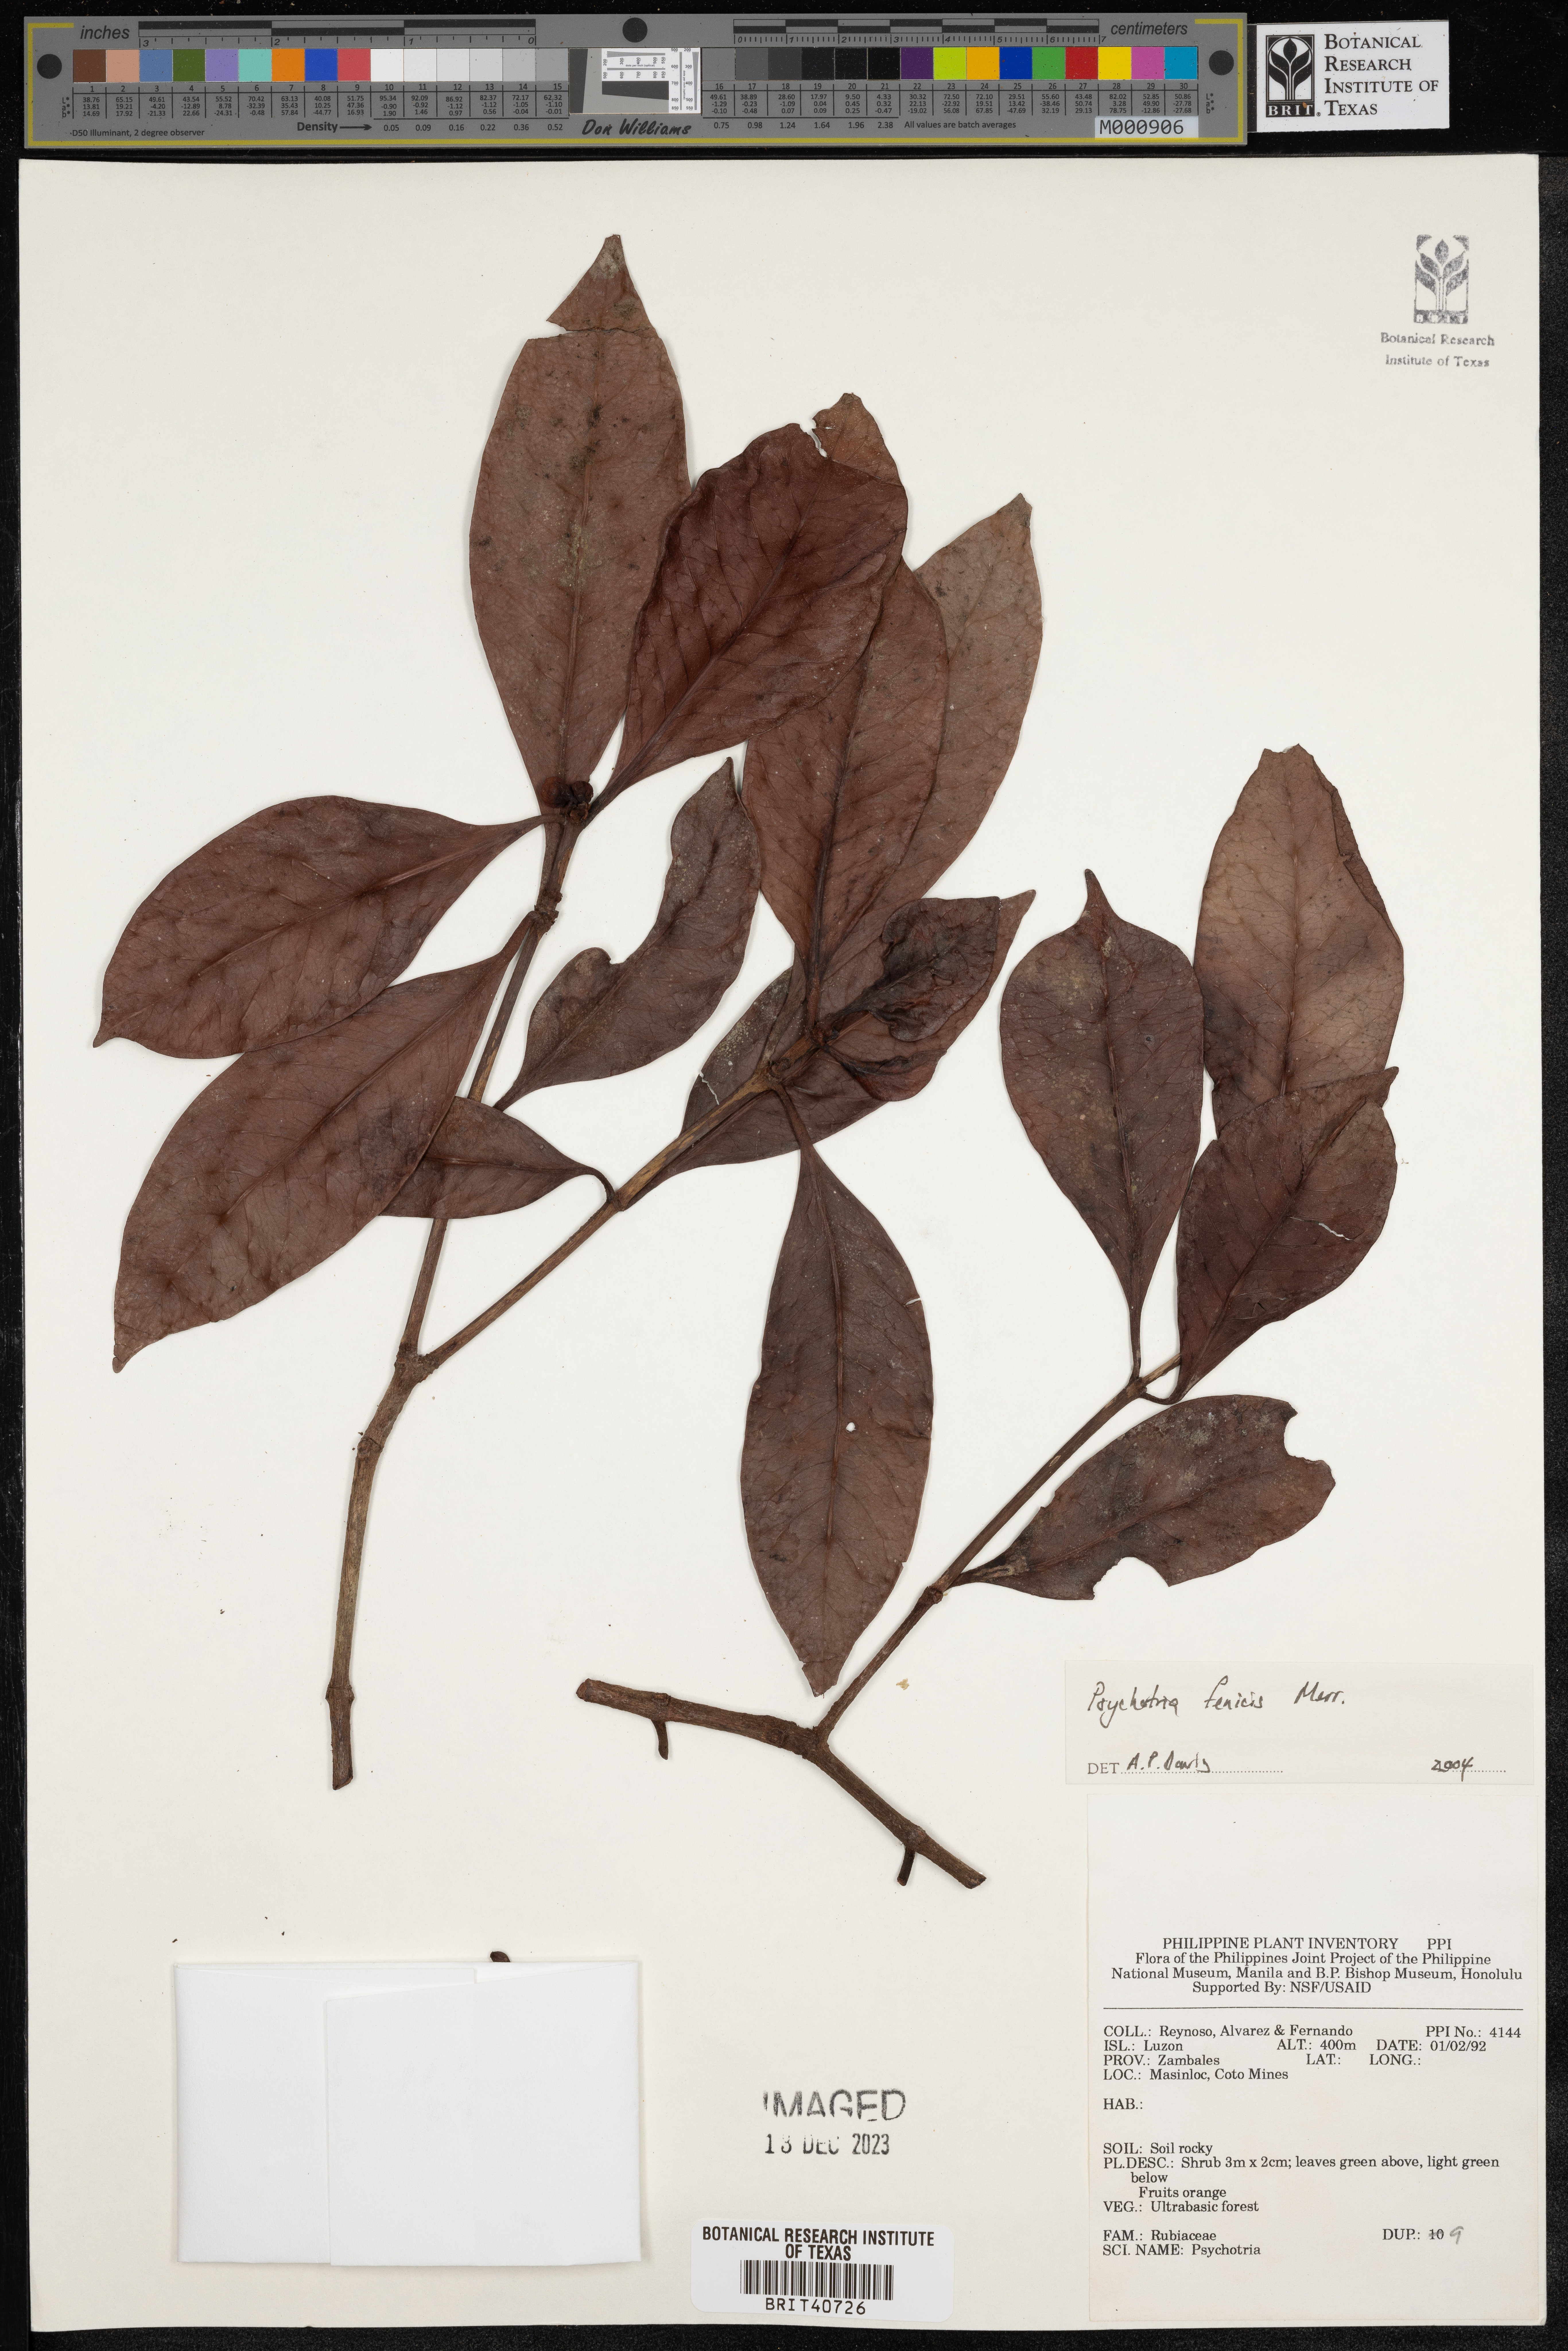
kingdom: Plantae
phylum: Tracheophyta
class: Magnoliopsida
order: Gentianales
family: Rubiaceae
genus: Psychotria
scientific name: Psychotria fenicis
